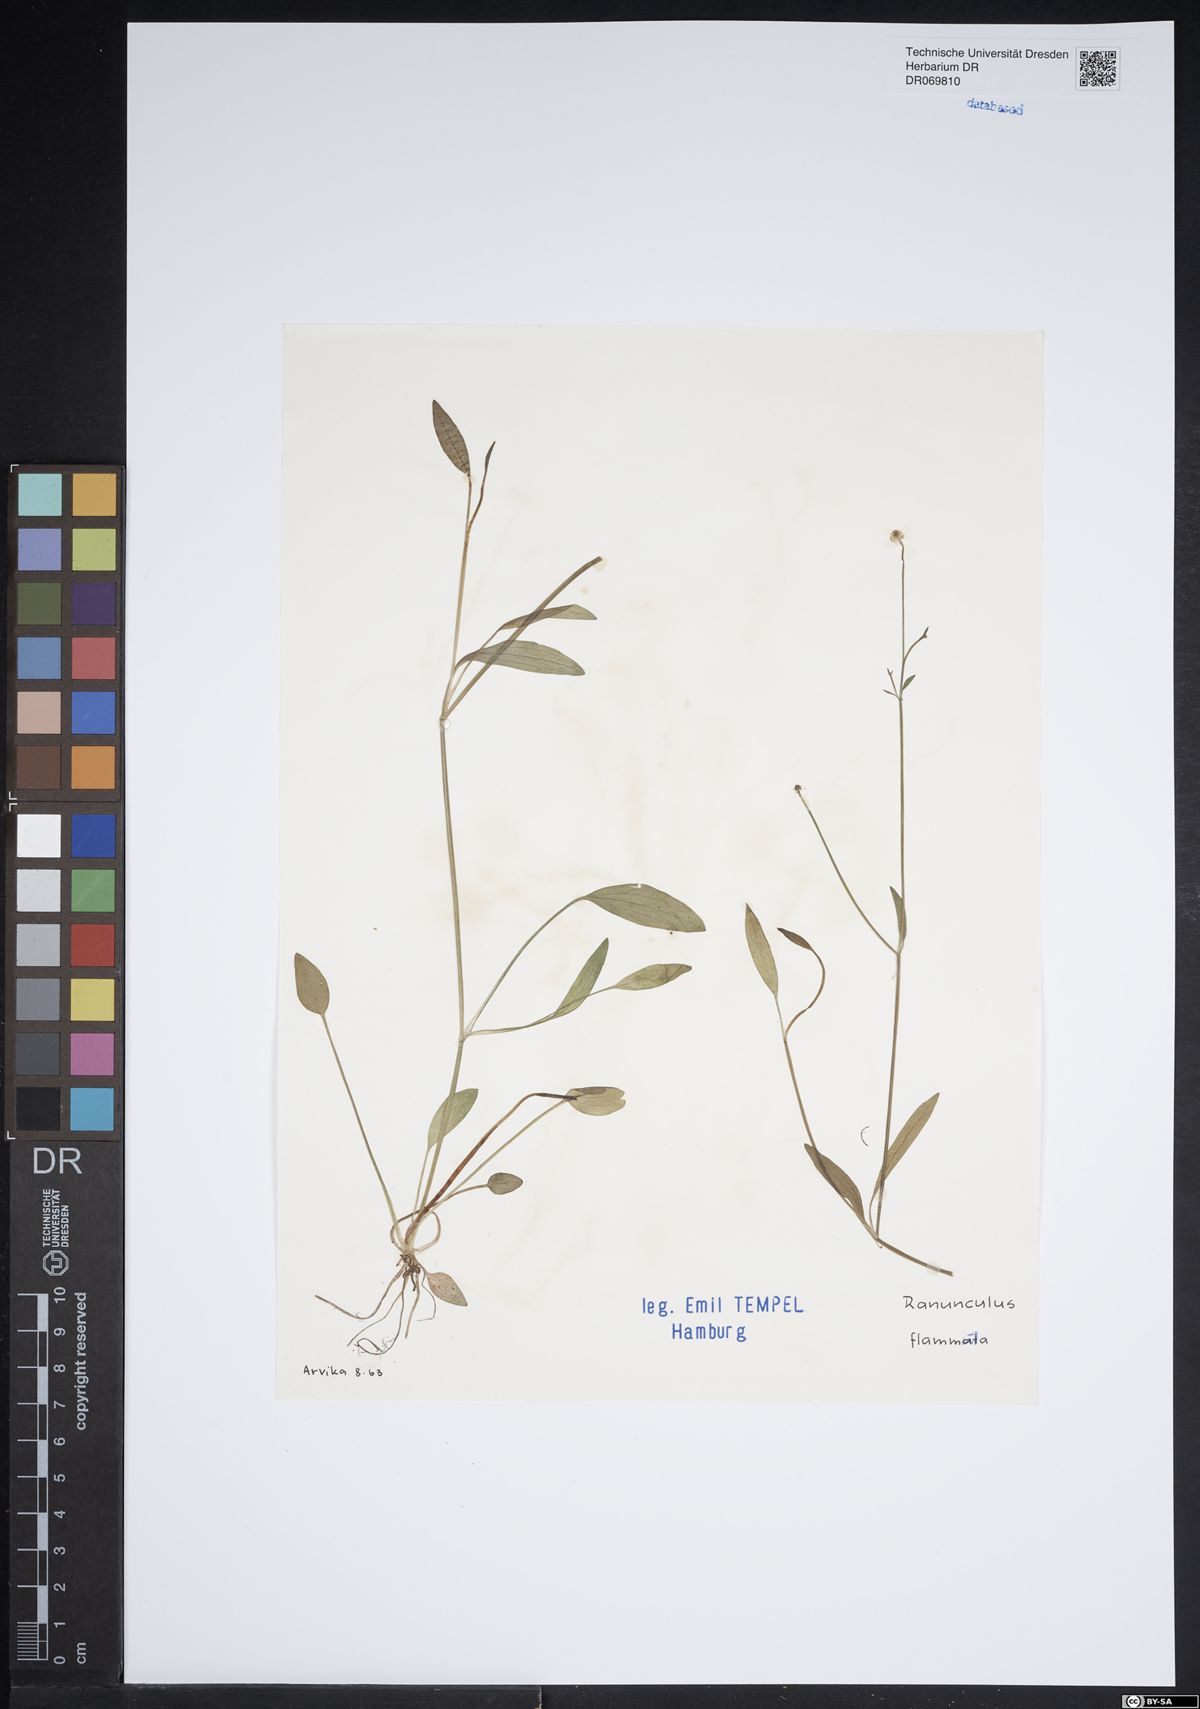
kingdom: Plantae
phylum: Tracheophyta
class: Magnoliopsida
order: Ranunculales
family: Ranunculaceae
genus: Ranunculus
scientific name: Ranunculus flammula
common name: Lesser spearwort
